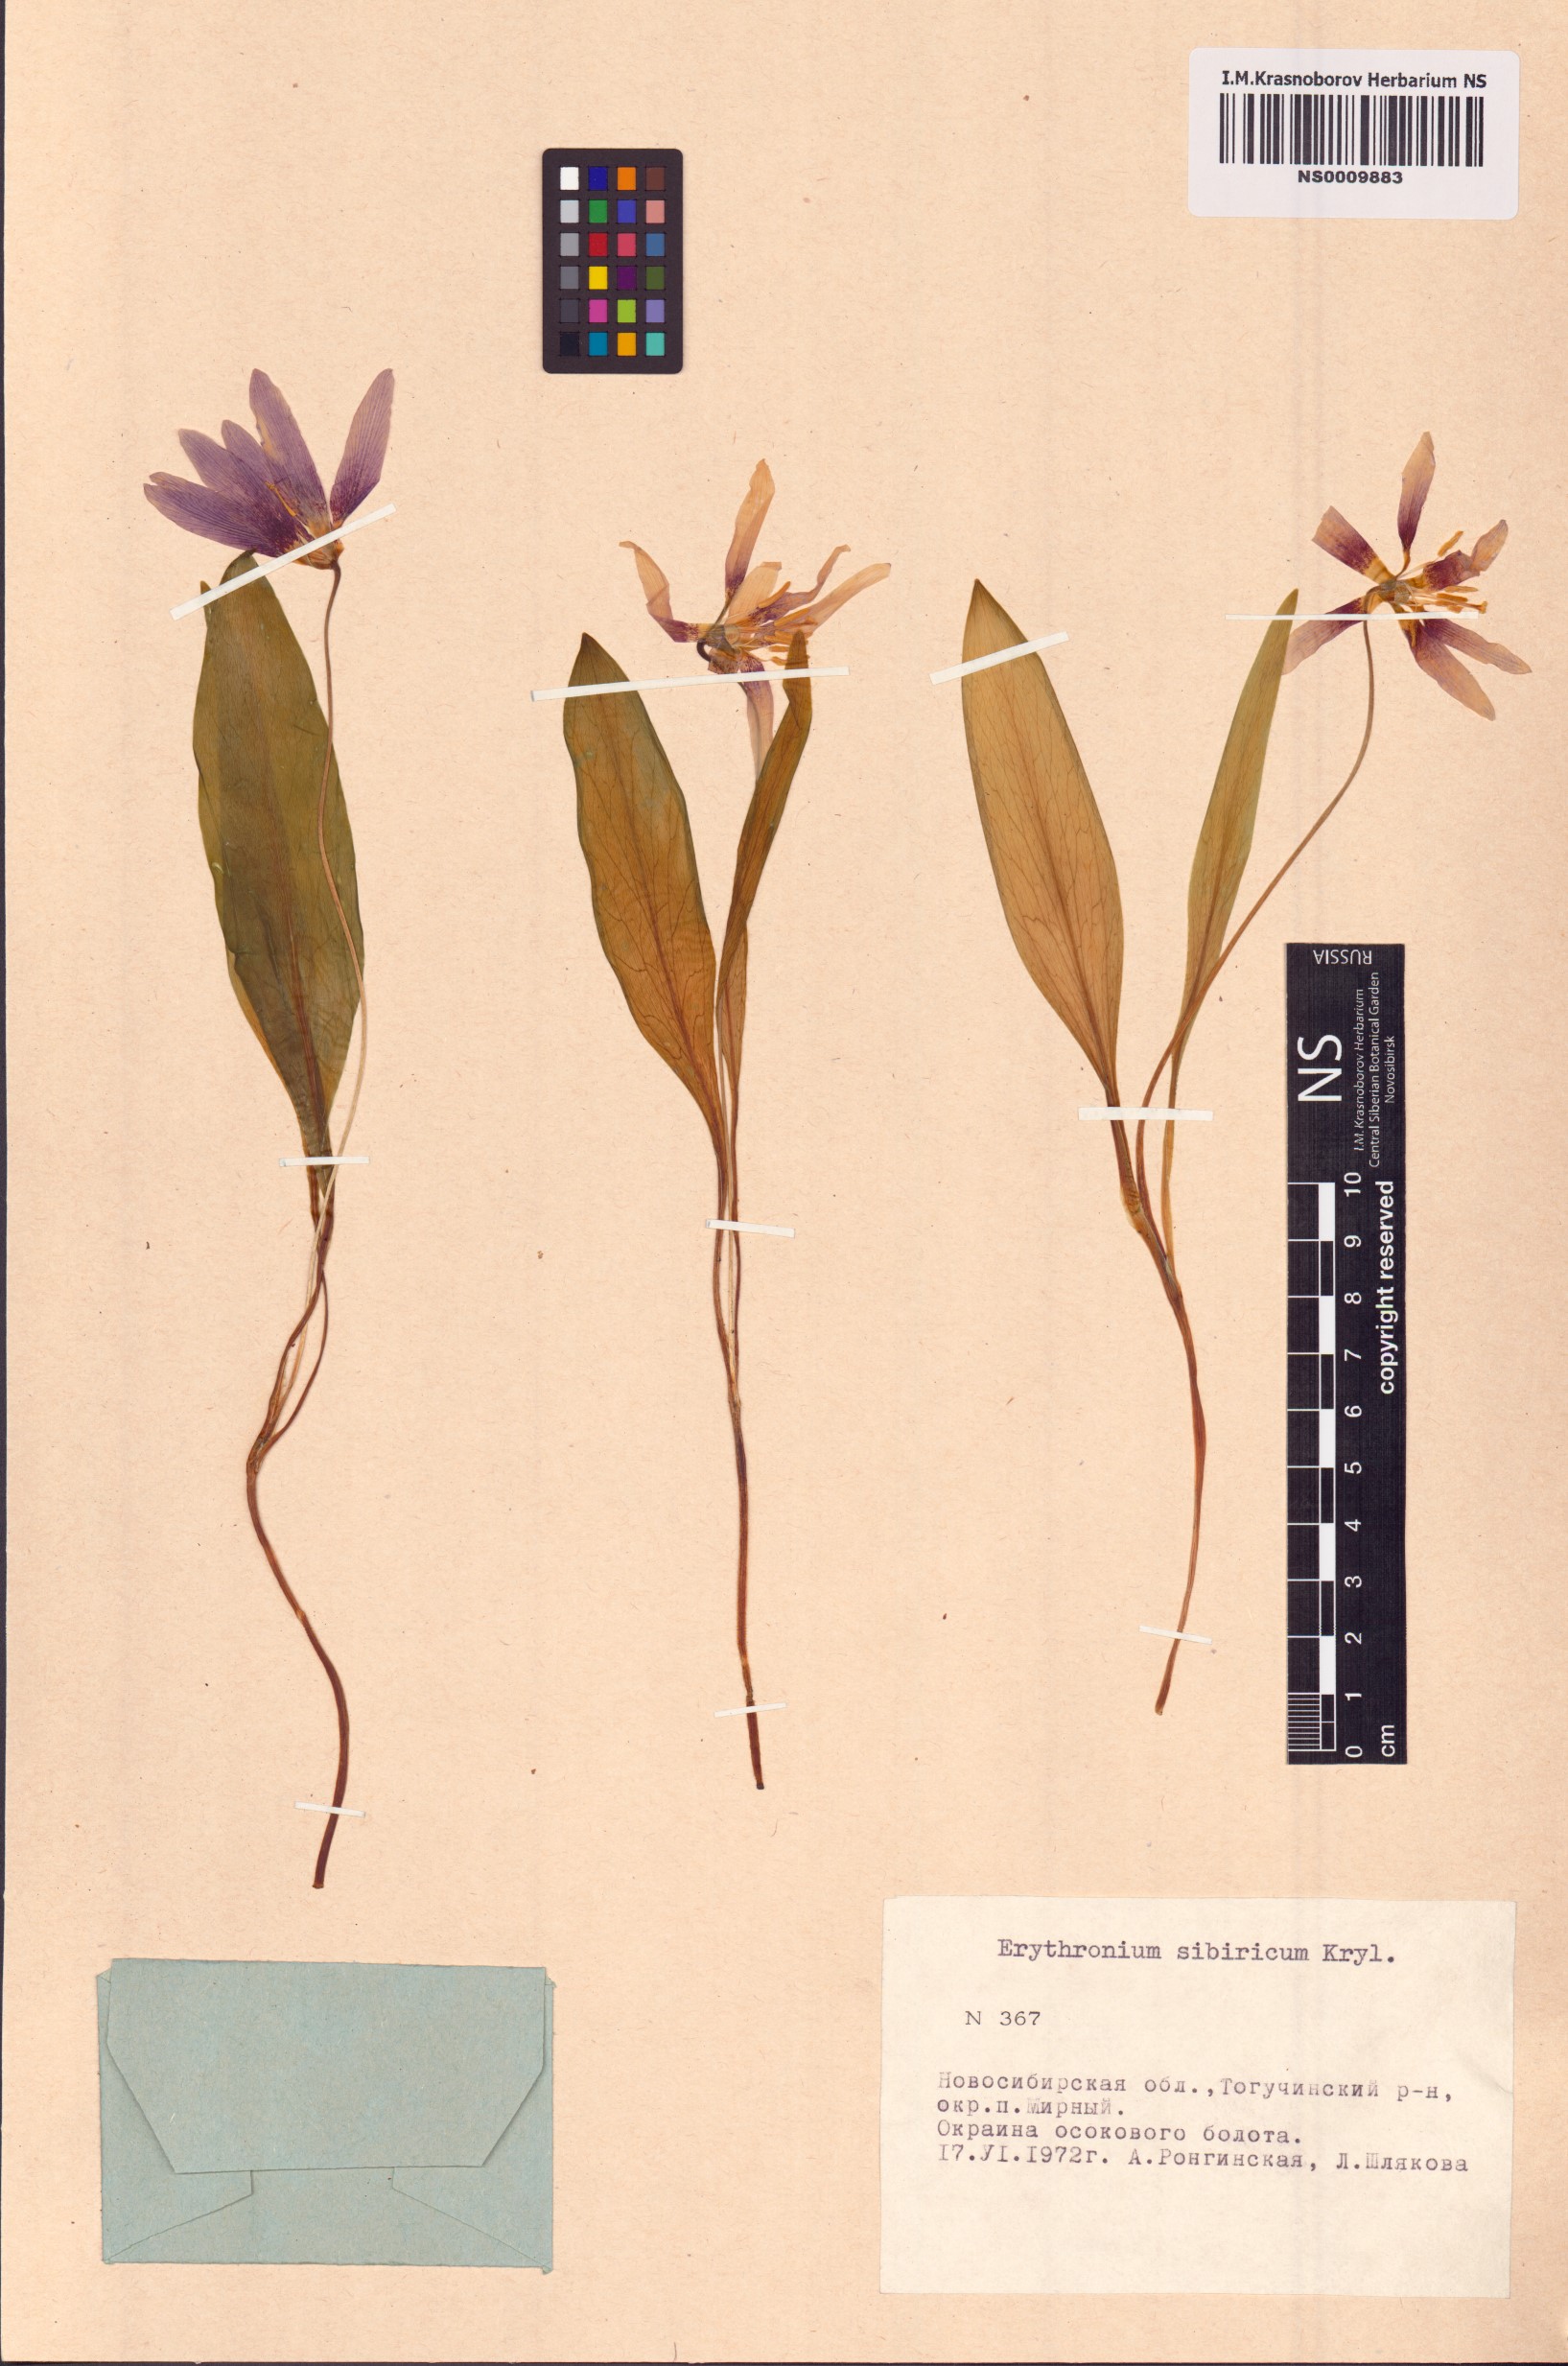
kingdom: Plantae
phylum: Tracheophyta
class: Liliopsida
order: Liliales
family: Liliaceae
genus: Erythronium
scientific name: Erythronium sibiricum
